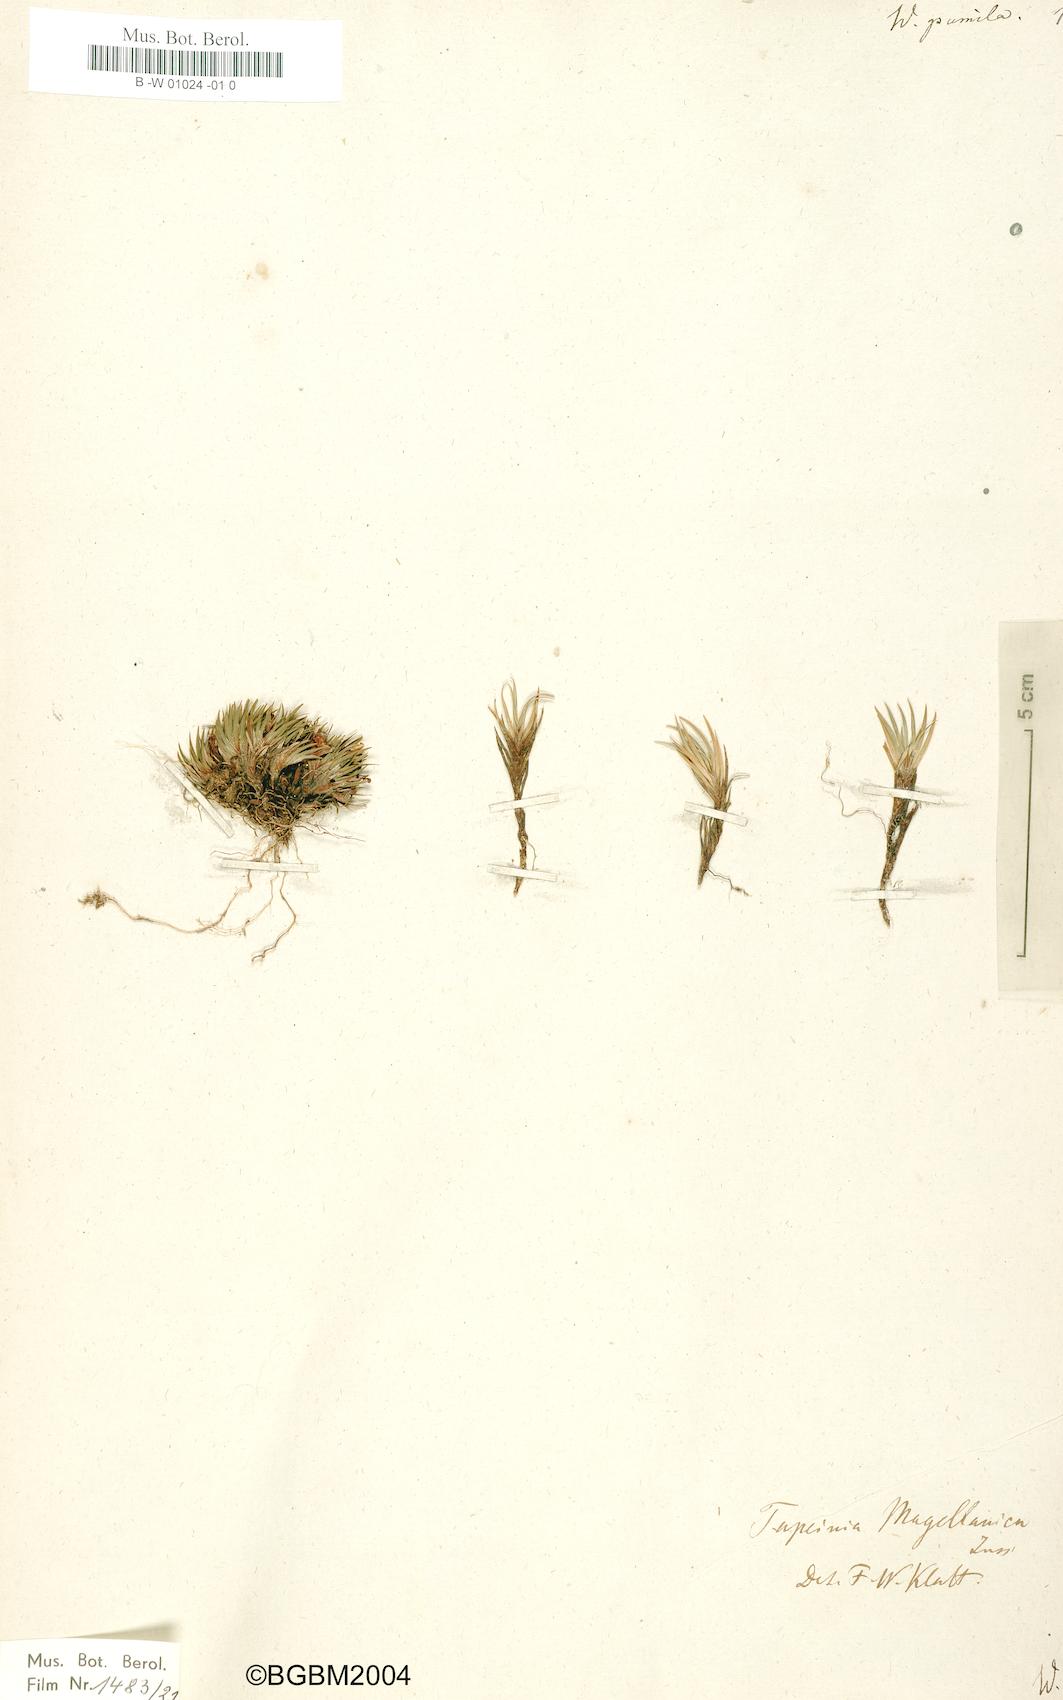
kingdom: Plantae
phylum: Tracheophyta
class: Liliopsida
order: Asparagales
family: Iridaceae
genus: Tapeinia
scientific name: Tapeinia pumila
